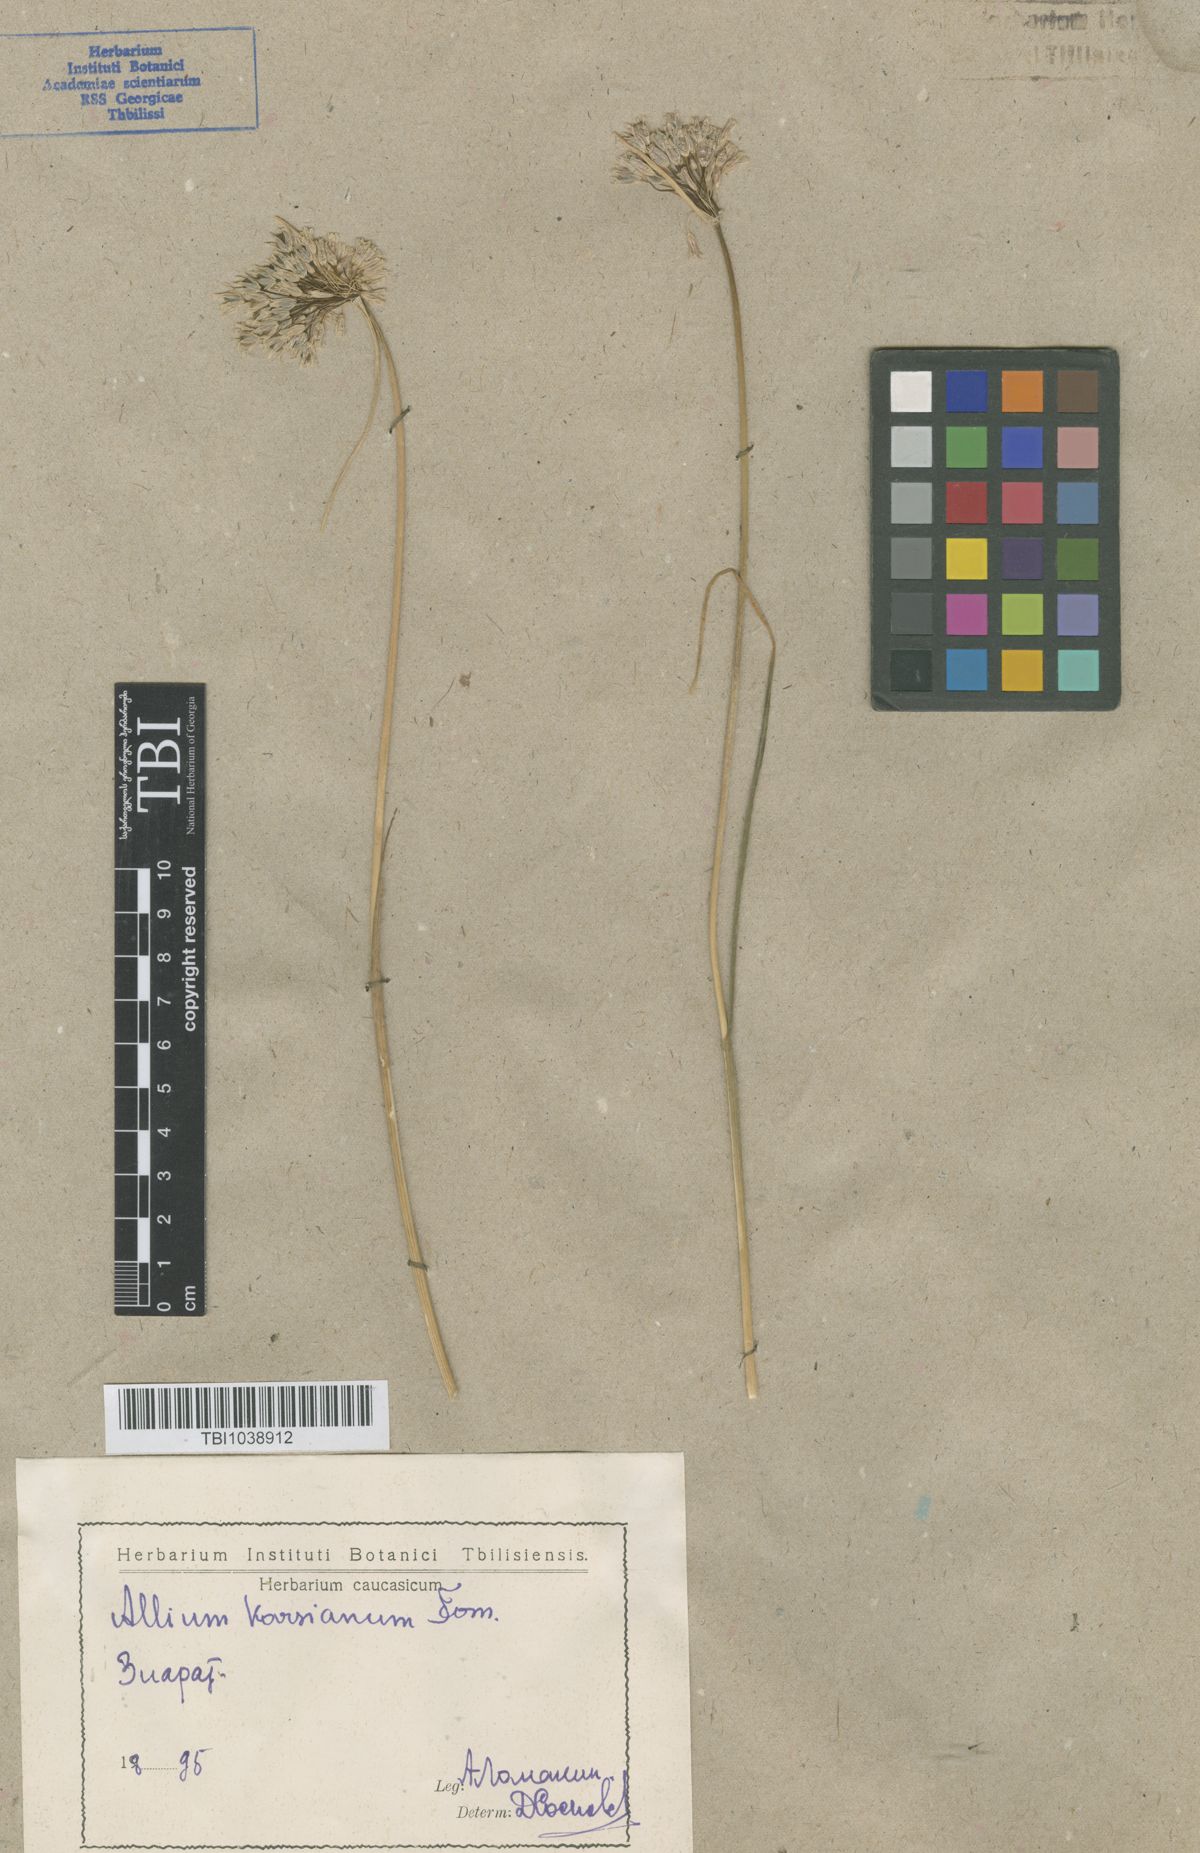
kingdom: Plantae
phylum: Tracheophyta
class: Liliopsida
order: Asparagales
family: Amaryllidaceae
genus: Allium
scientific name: Allium paniculatum
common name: Pale garlic
